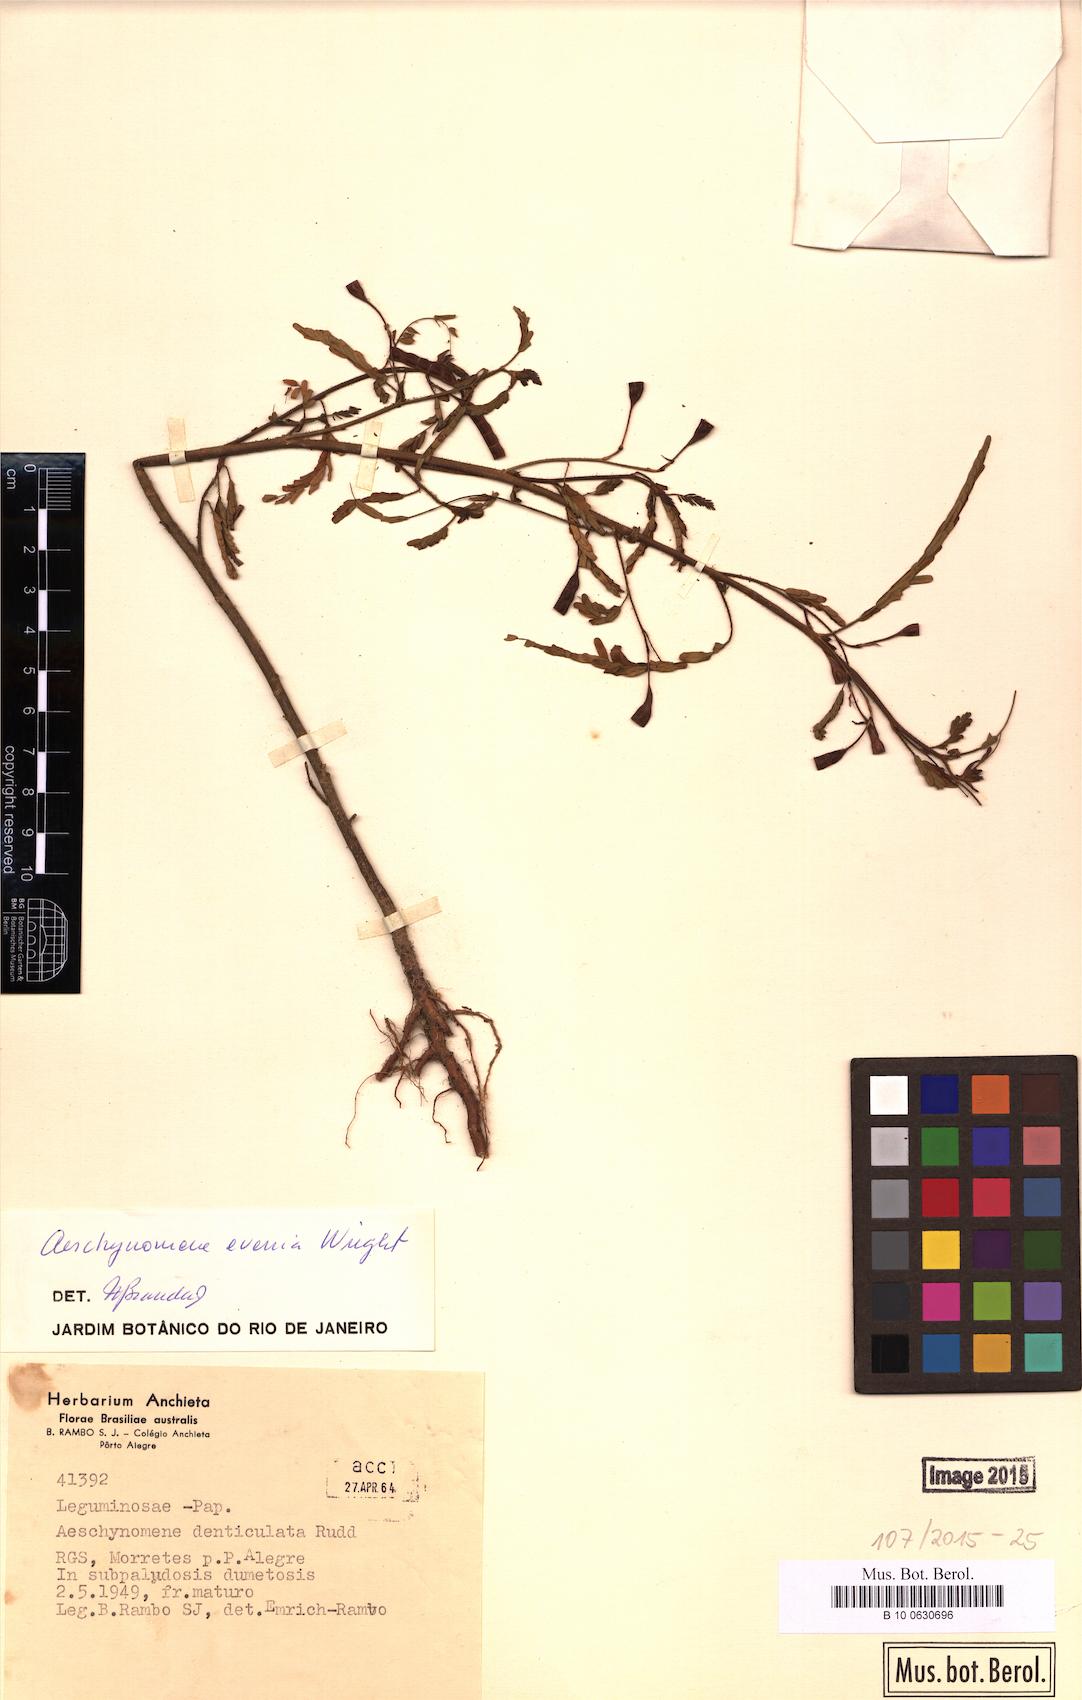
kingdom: Plantae
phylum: Tracheophyta
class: Magnoliopsida
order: Fabales
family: Fabaceae
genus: Aeschynomene
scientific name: Aeschynomene evenia
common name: Shrubby jointvetch
